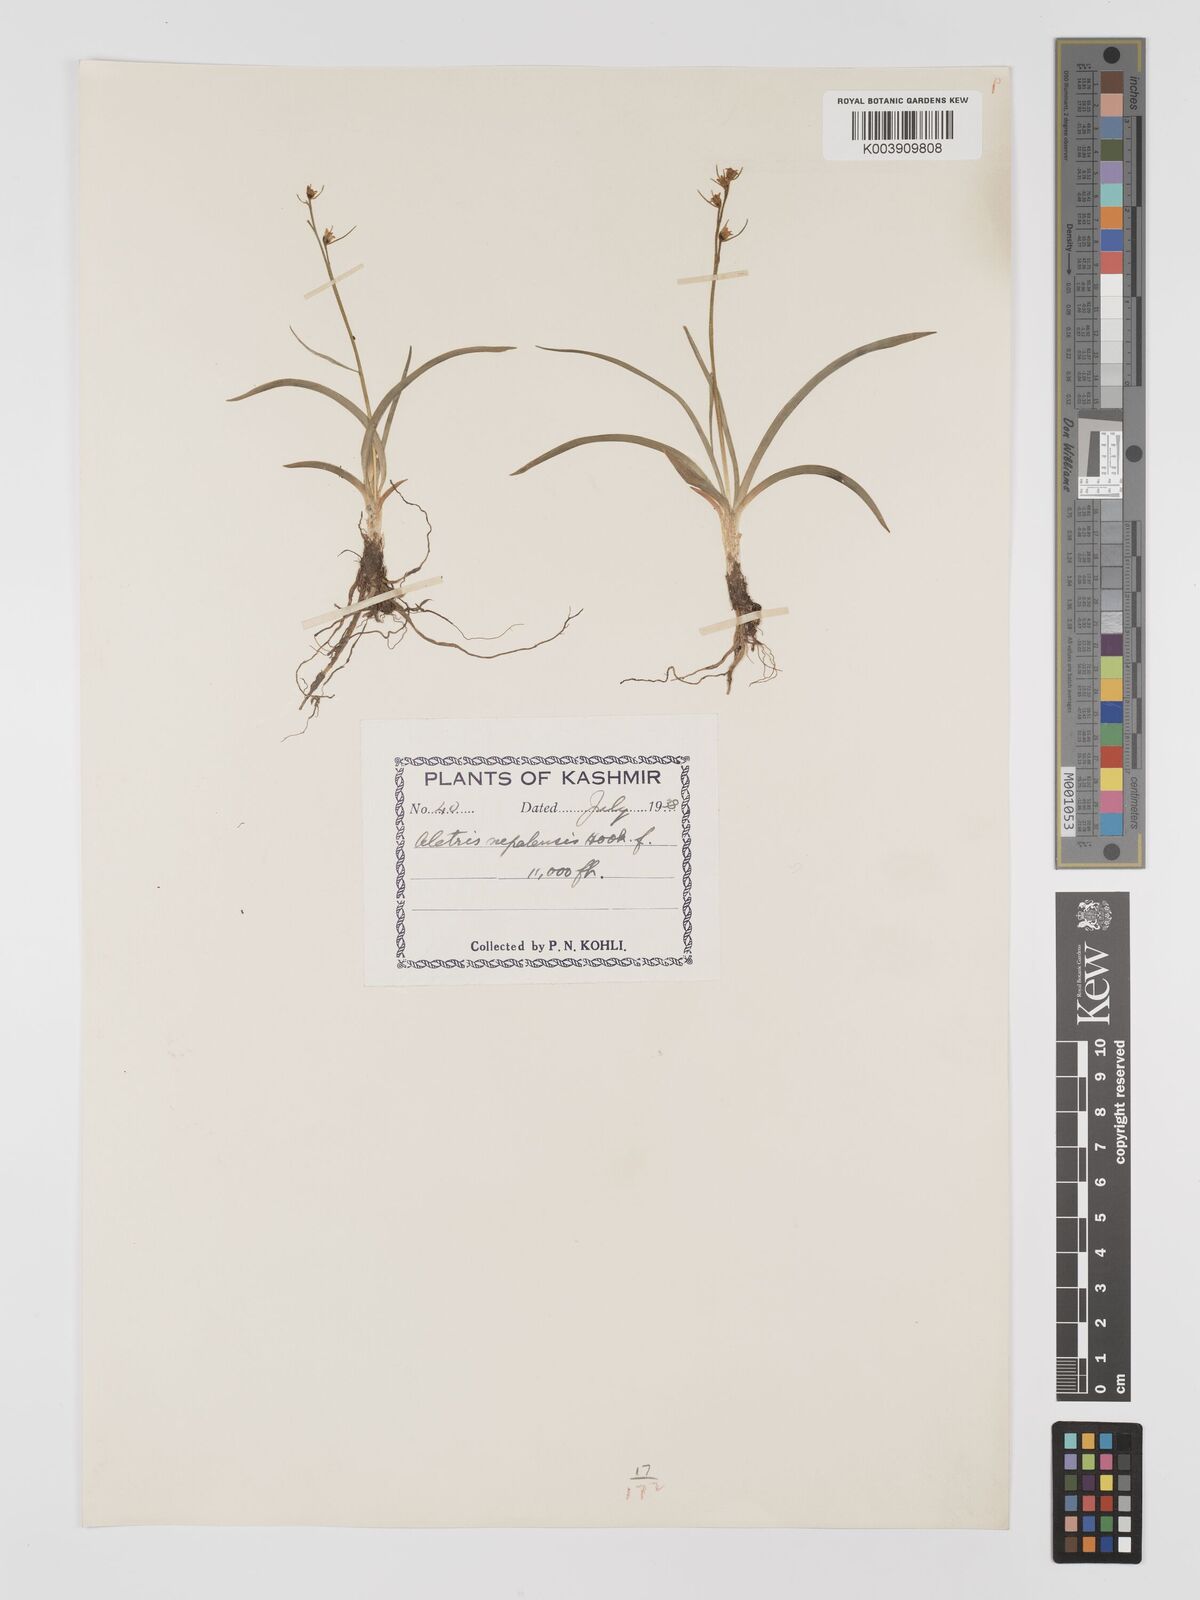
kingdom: Plantae
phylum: Tracheophyta
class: Liliopsida
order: Dioscoreales
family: Nartheciaceae
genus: Aletris
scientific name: Aletris pauciflora
